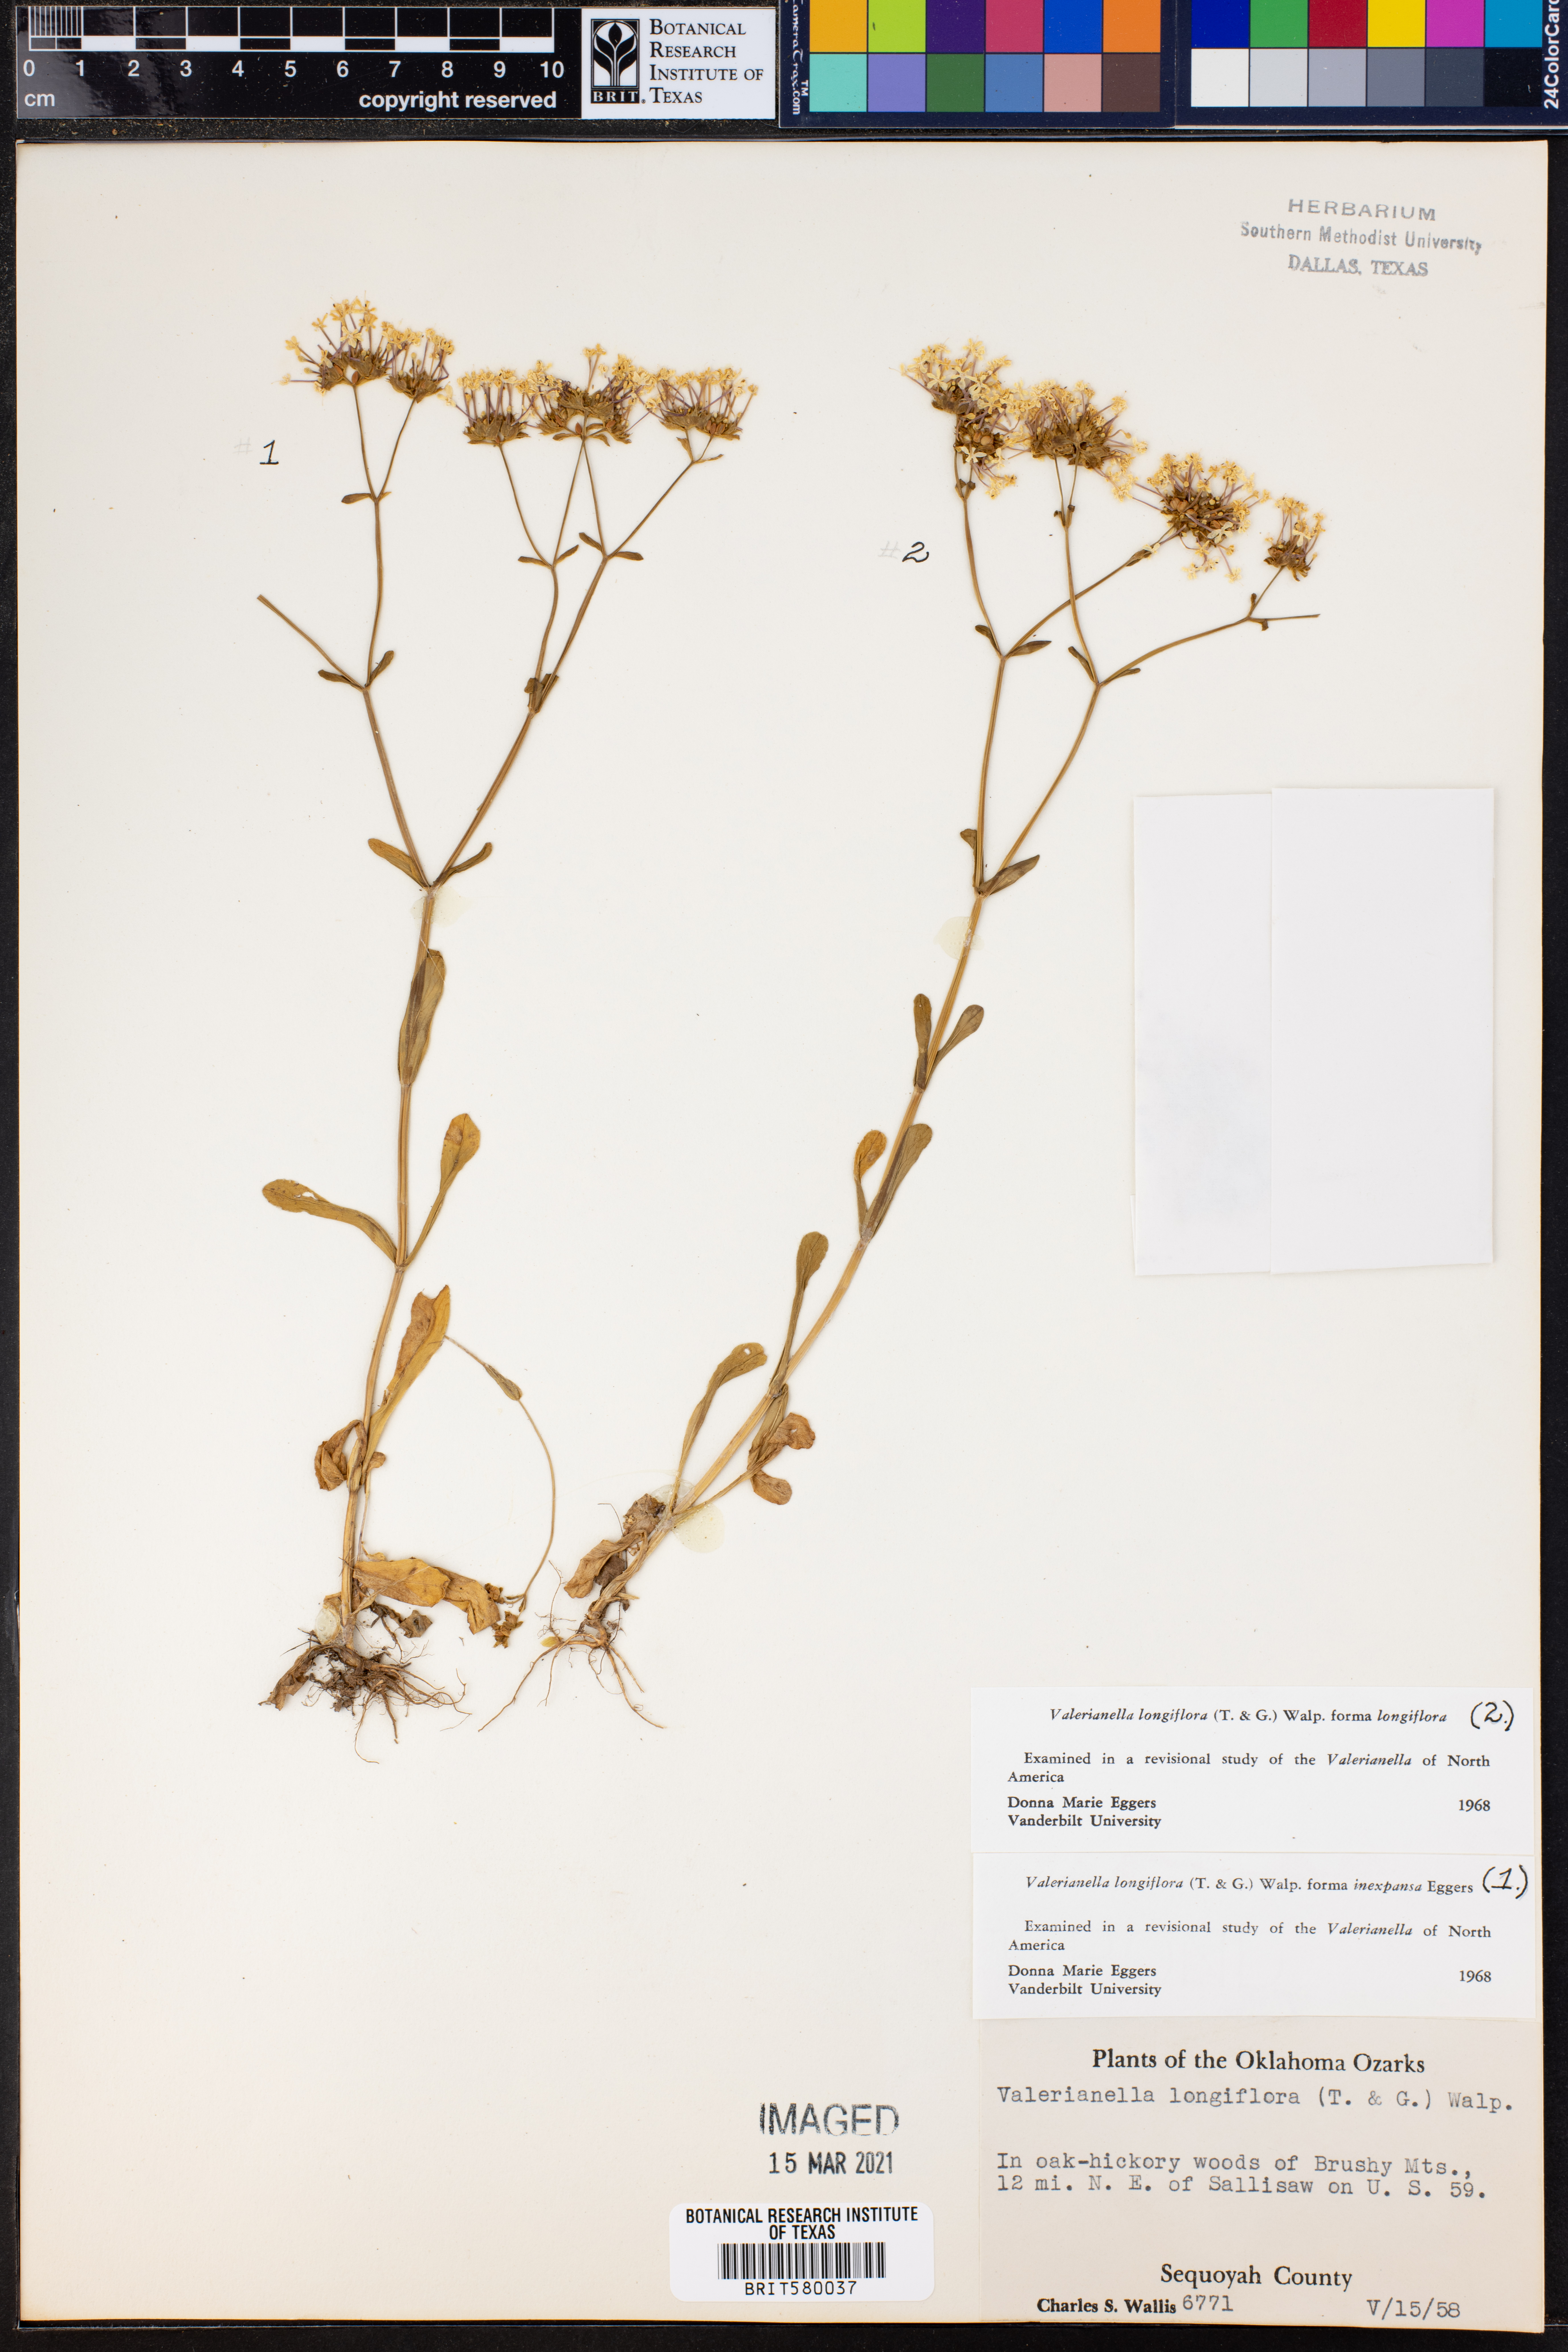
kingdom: Plantae
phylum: Tracheophyta
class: Magnoliopsida
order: Dipsacales
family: Caprifoliaceae
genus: Plectritis
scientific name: Plectritis longiflora
